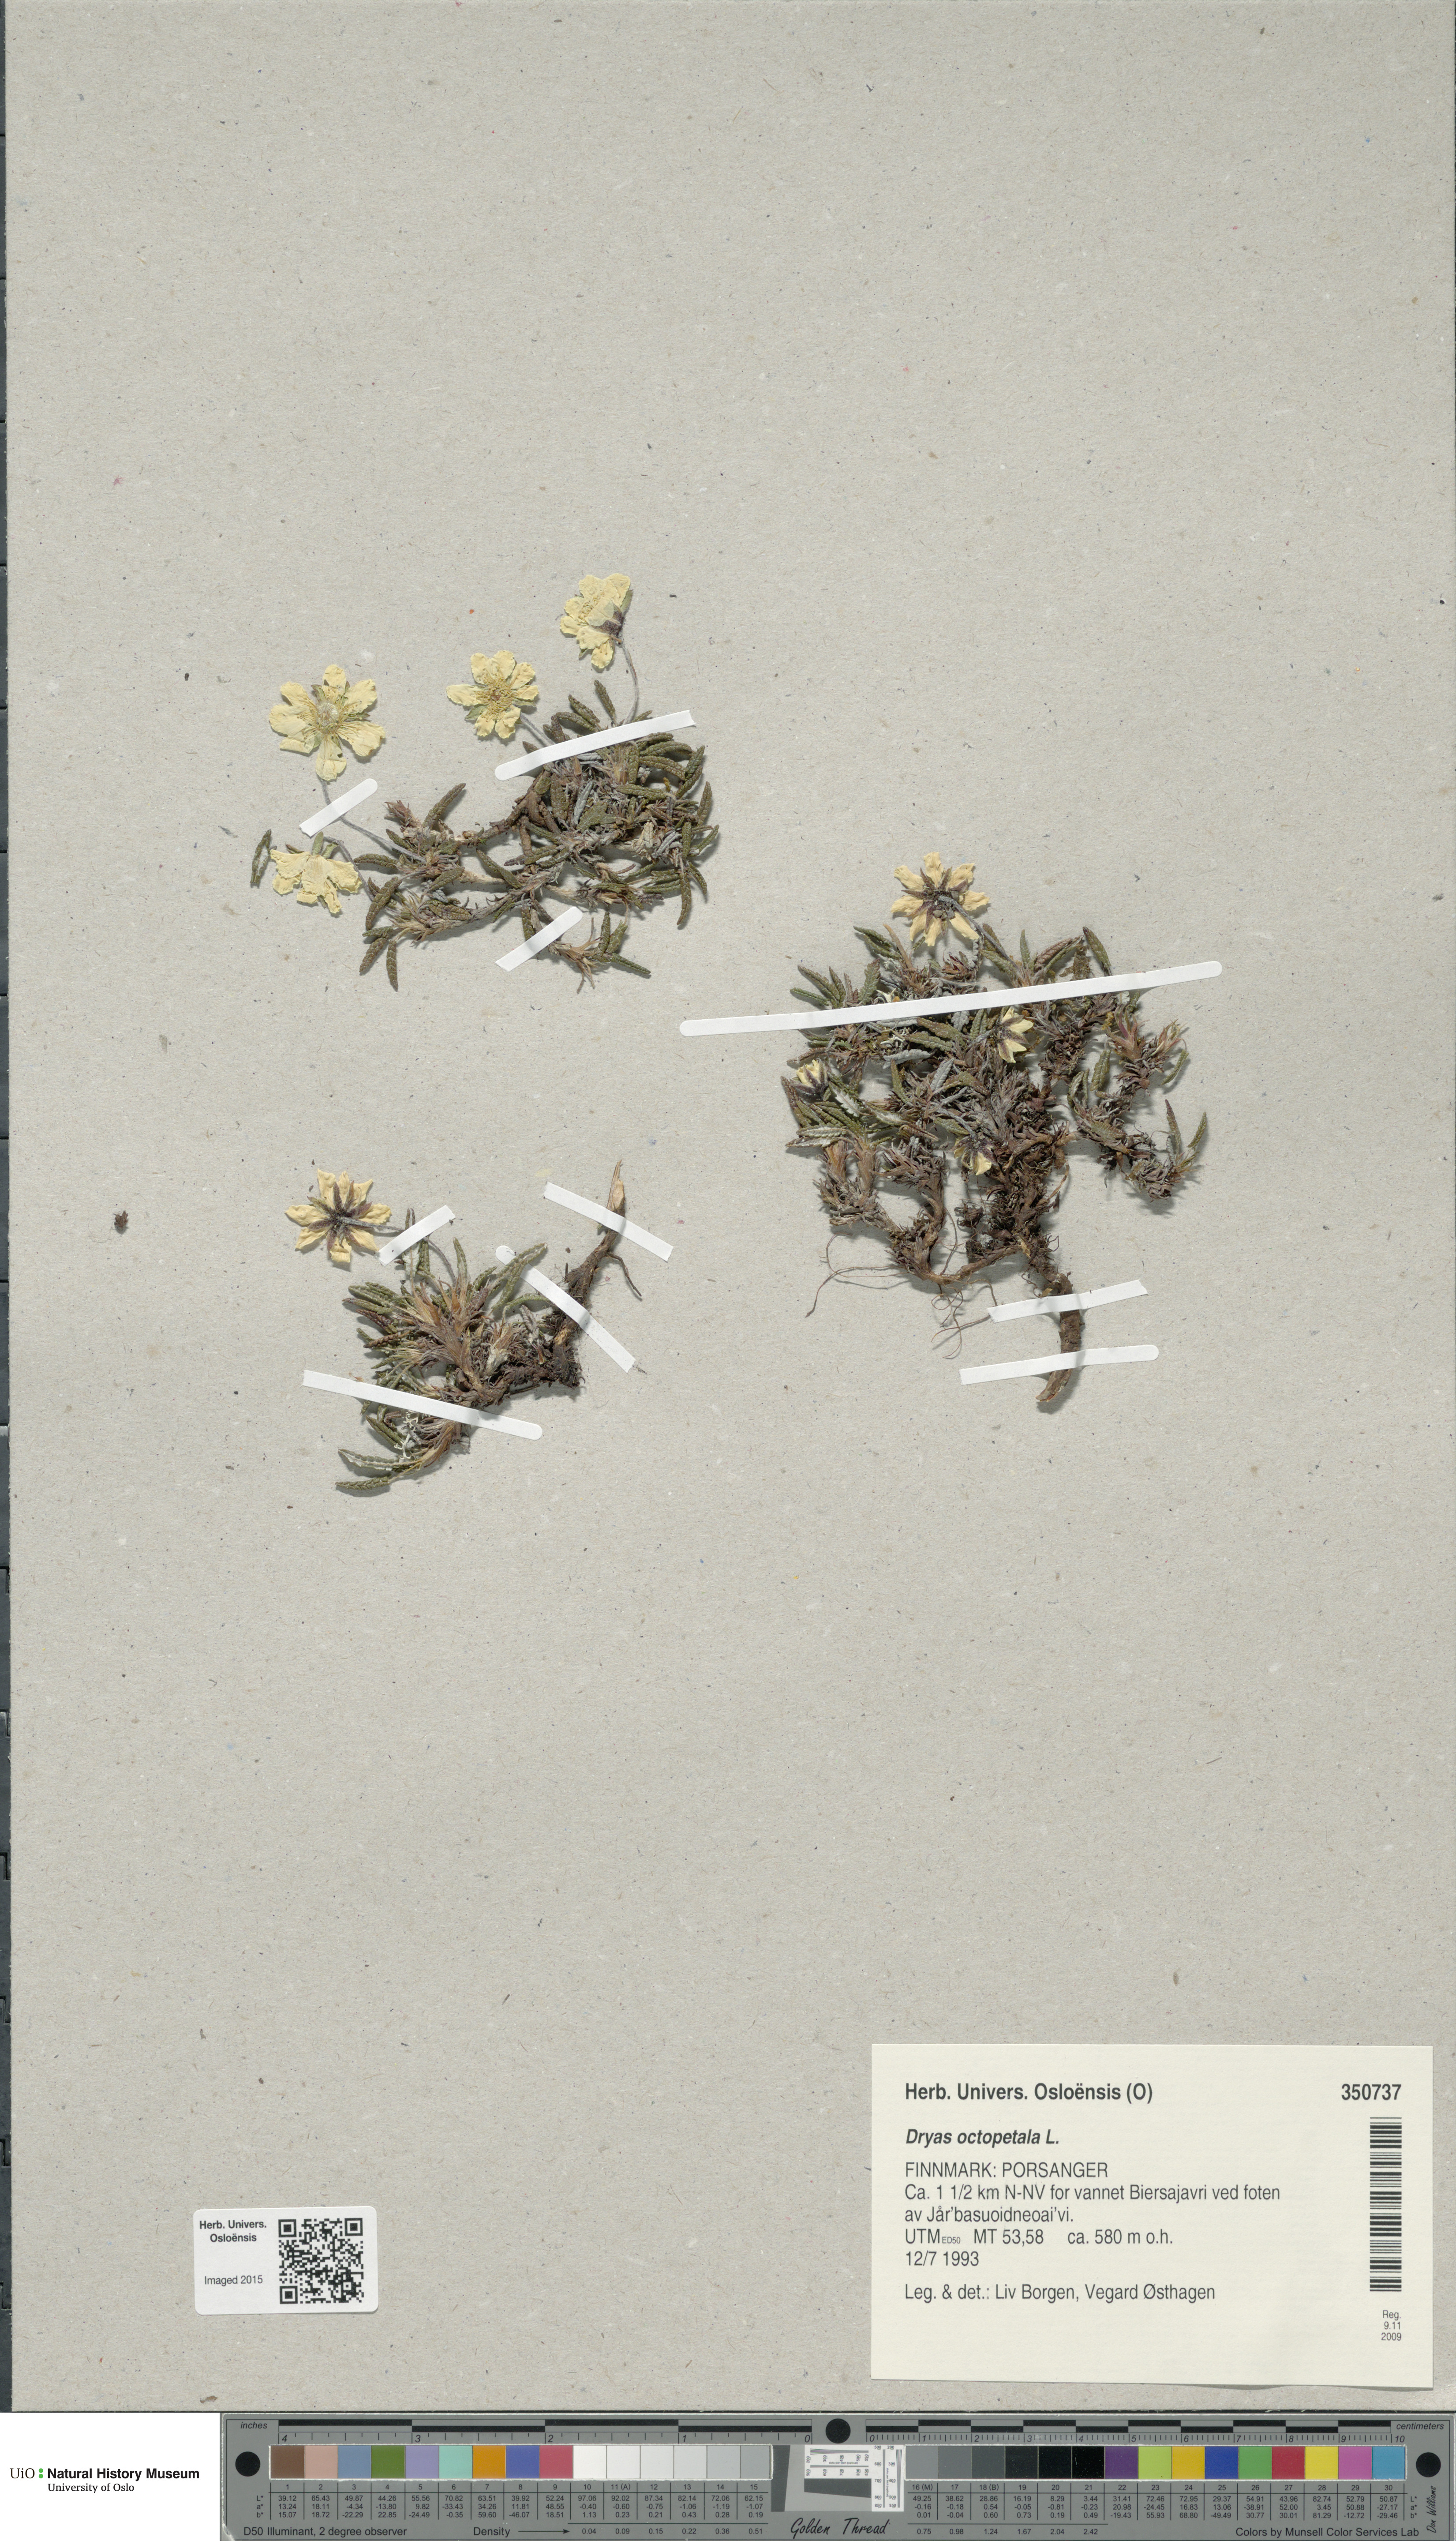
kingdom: Plantae
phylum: Tracheophyta
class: Magnoliopsida
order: Rosales
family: Rosaceae
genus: Dryas
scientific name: Dryas octopetala
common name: Eight-petal mountain-avens
